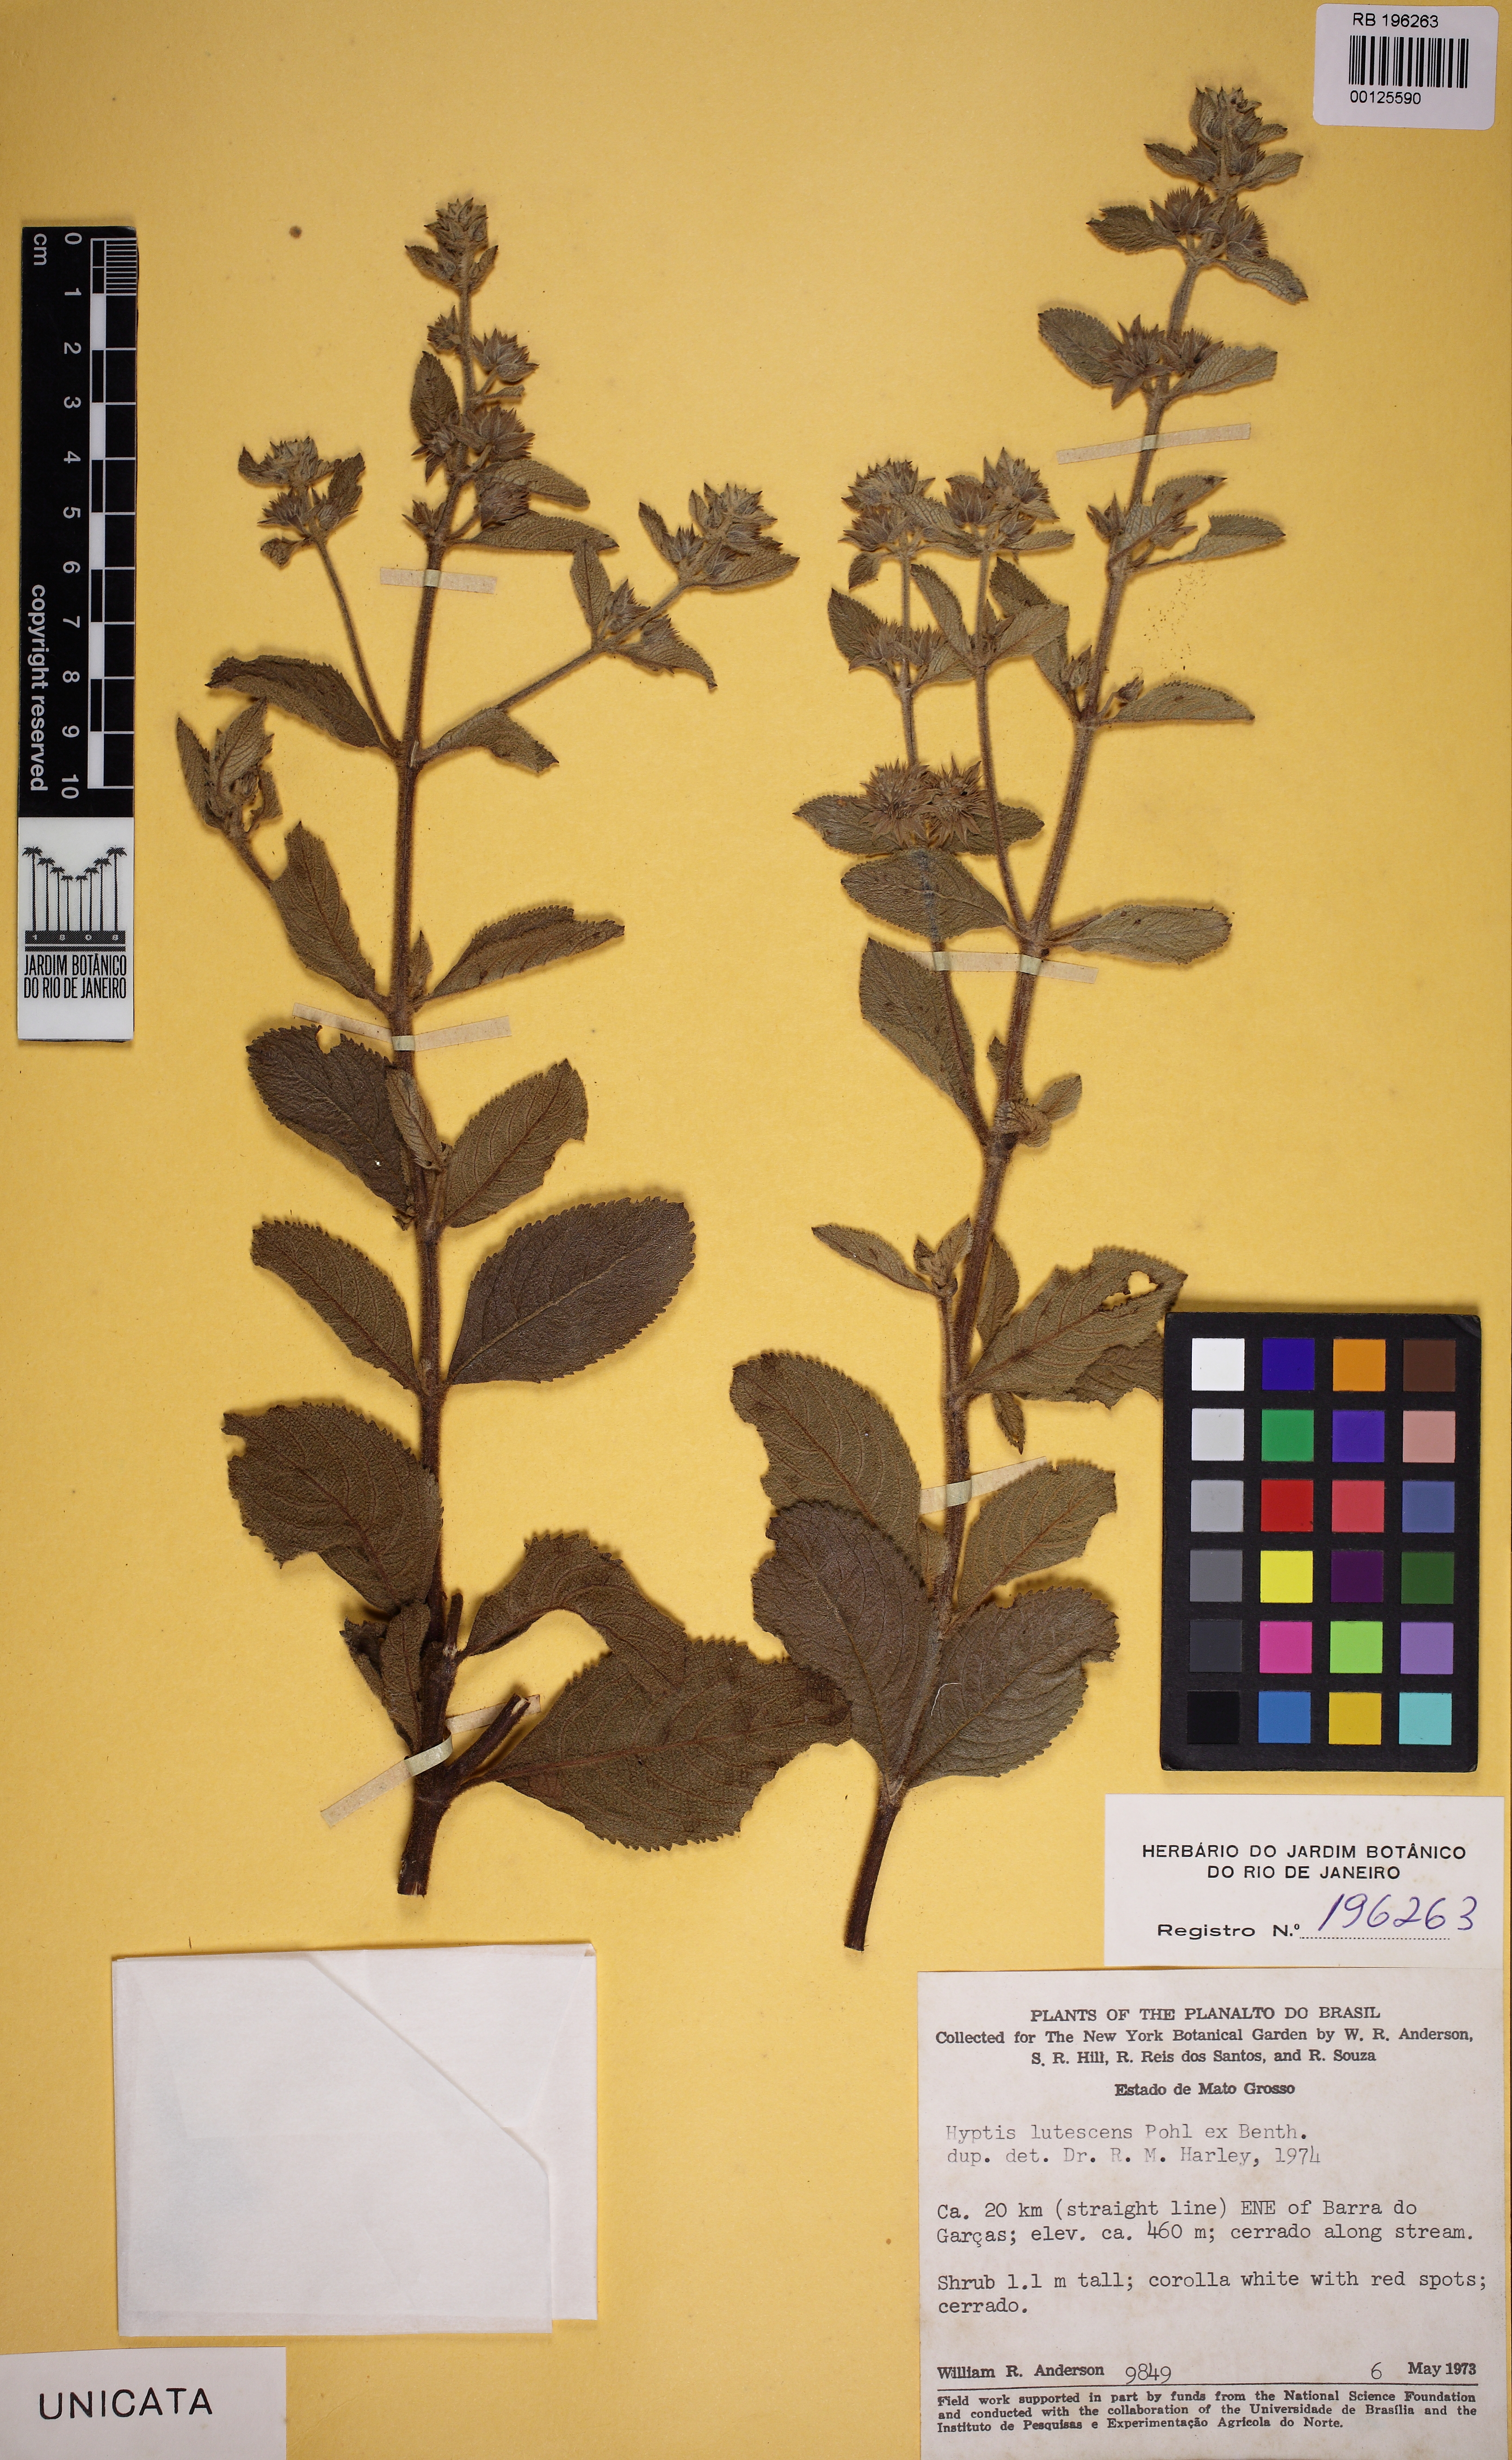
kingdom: Plantae
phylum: Tracheophyta
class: Magnoliopsida
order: Lamiales
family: Lamiaceae
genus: Hyptis
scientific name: Hyptis lutescens
